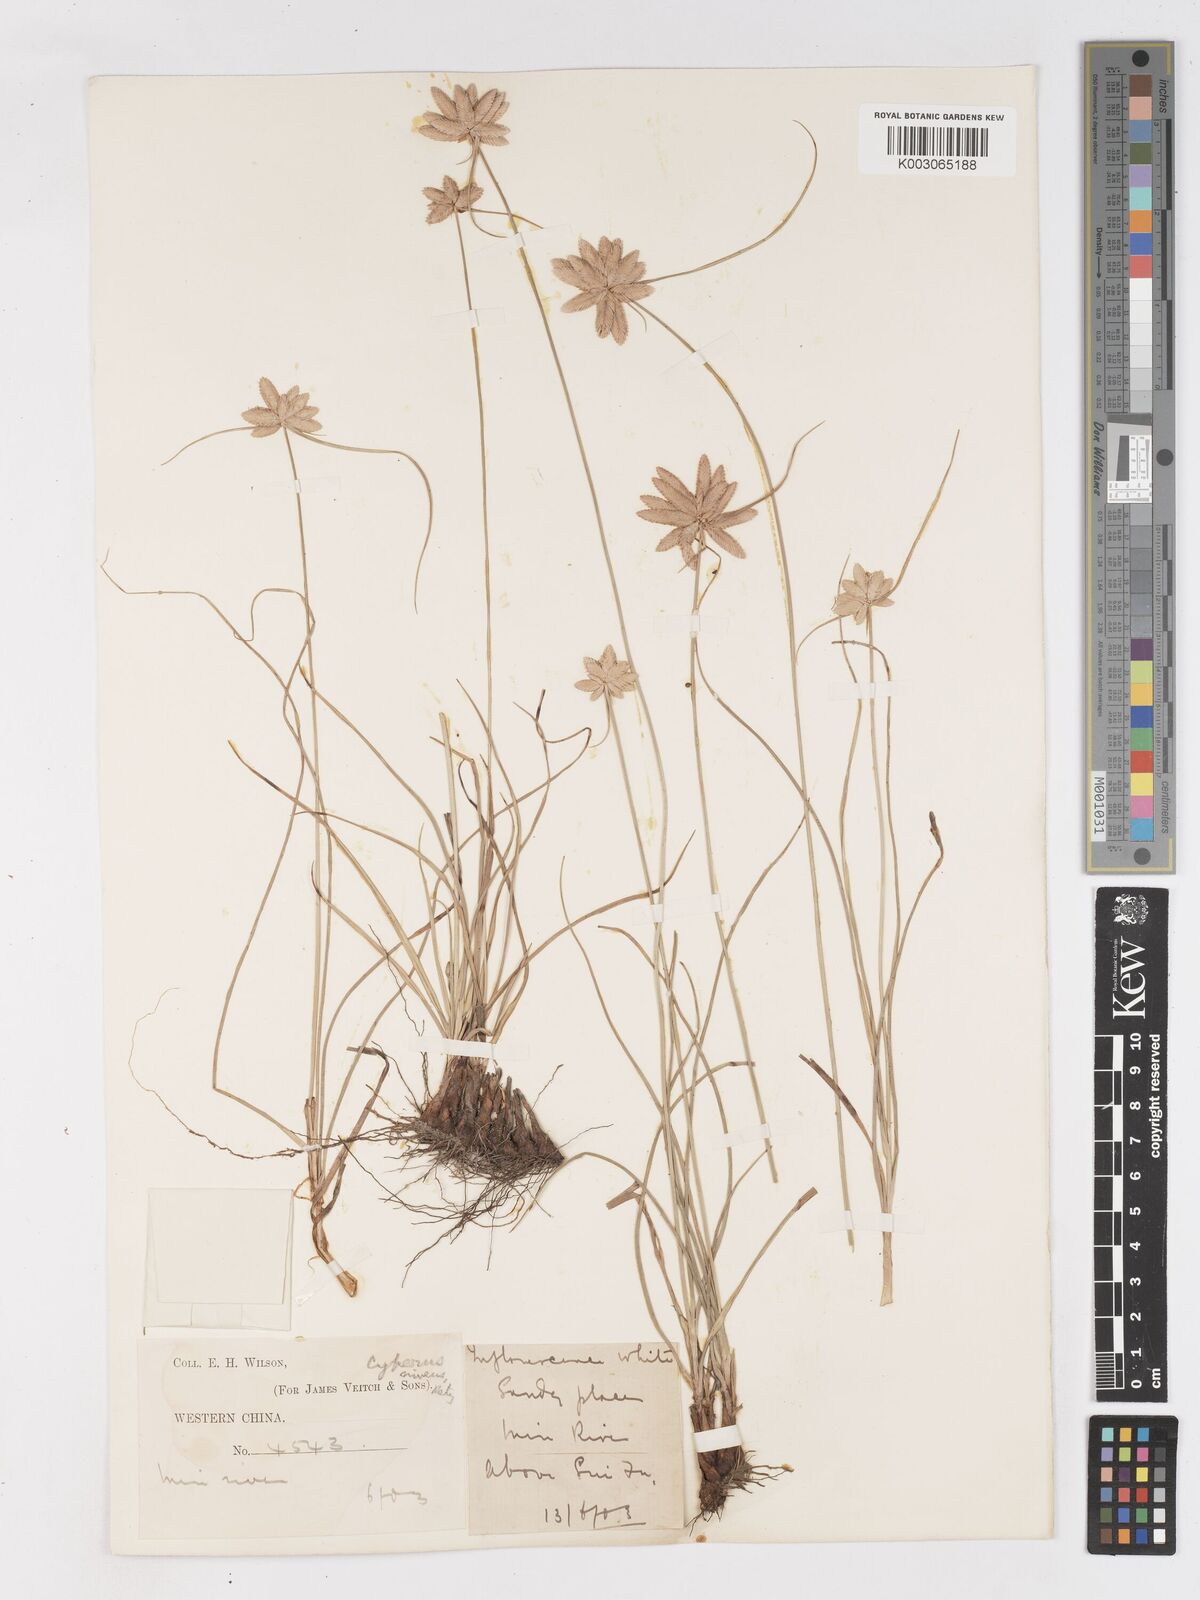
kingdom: Plantae
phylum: Tracheophyta
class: Liliopsida
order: Poales
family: Cyperaceae
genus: Cyperus
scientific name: Cyperus niveus
